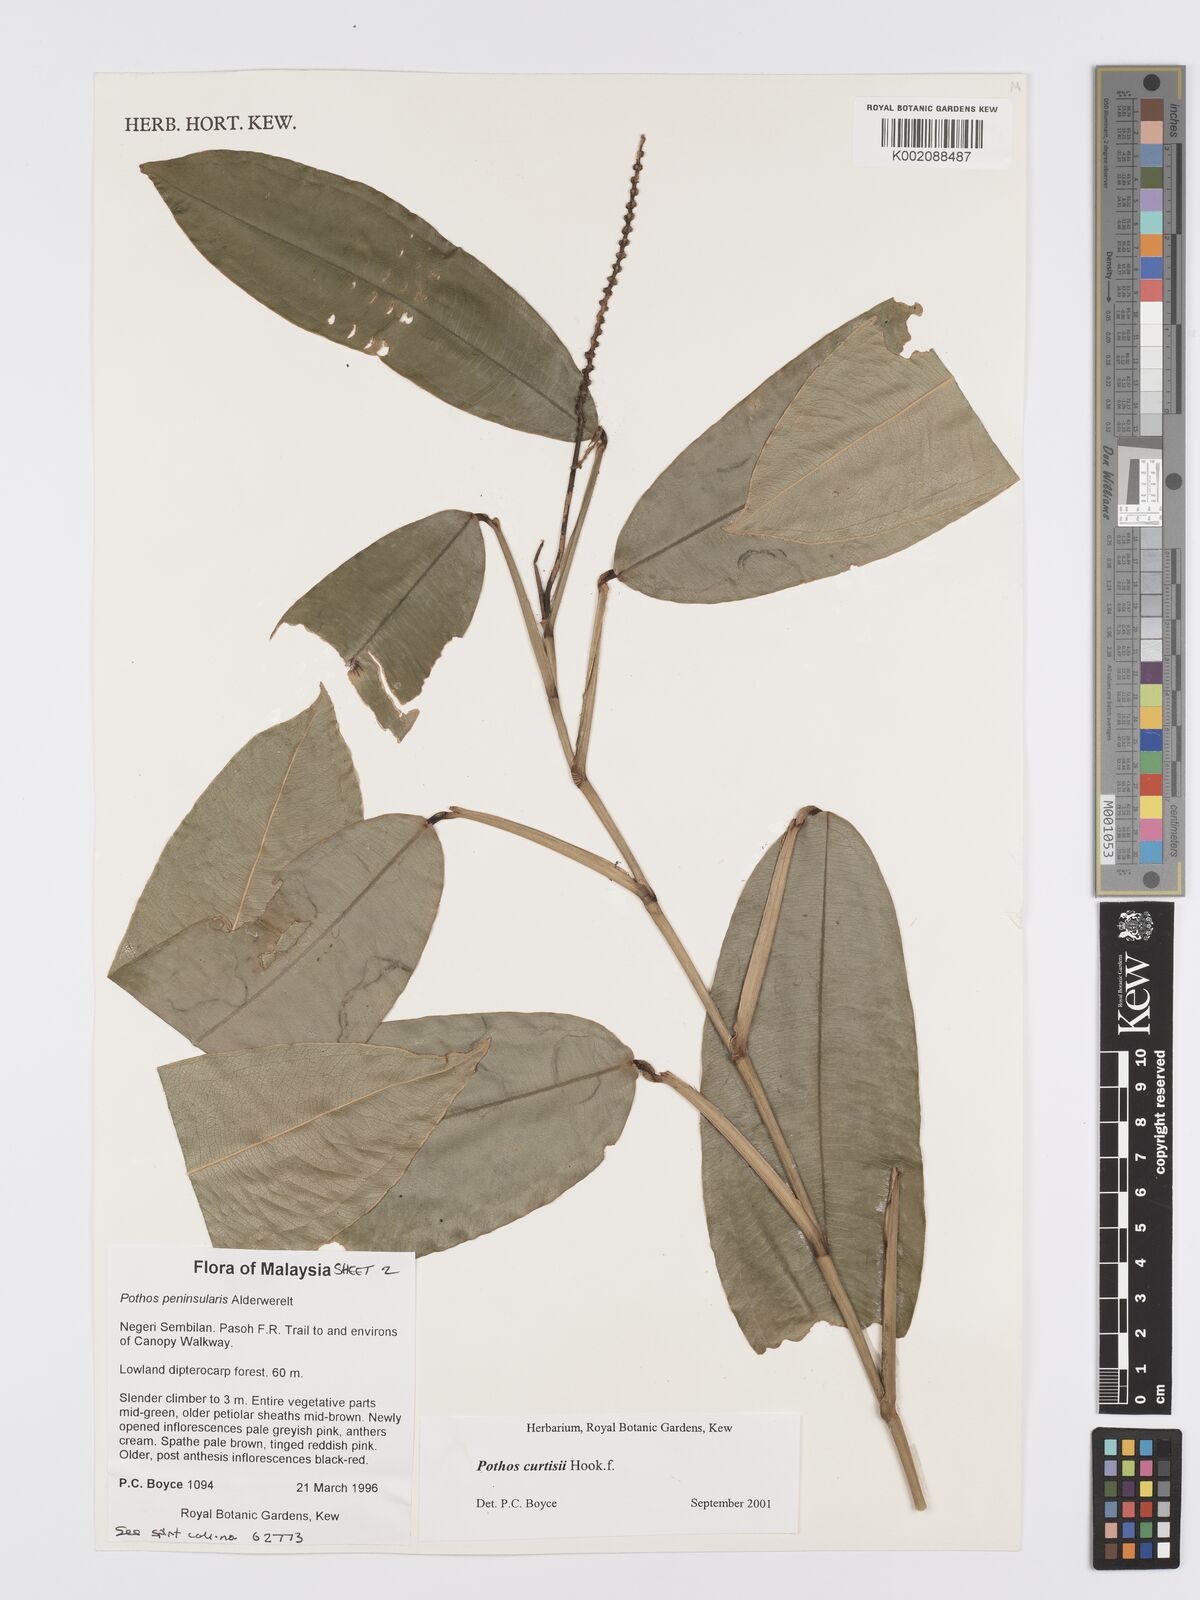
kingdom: Plantae
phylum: Tracheophyta
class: Liliopsida
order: Alismatales
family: Araceae
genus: Pothos
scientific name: Pothos curtisii
